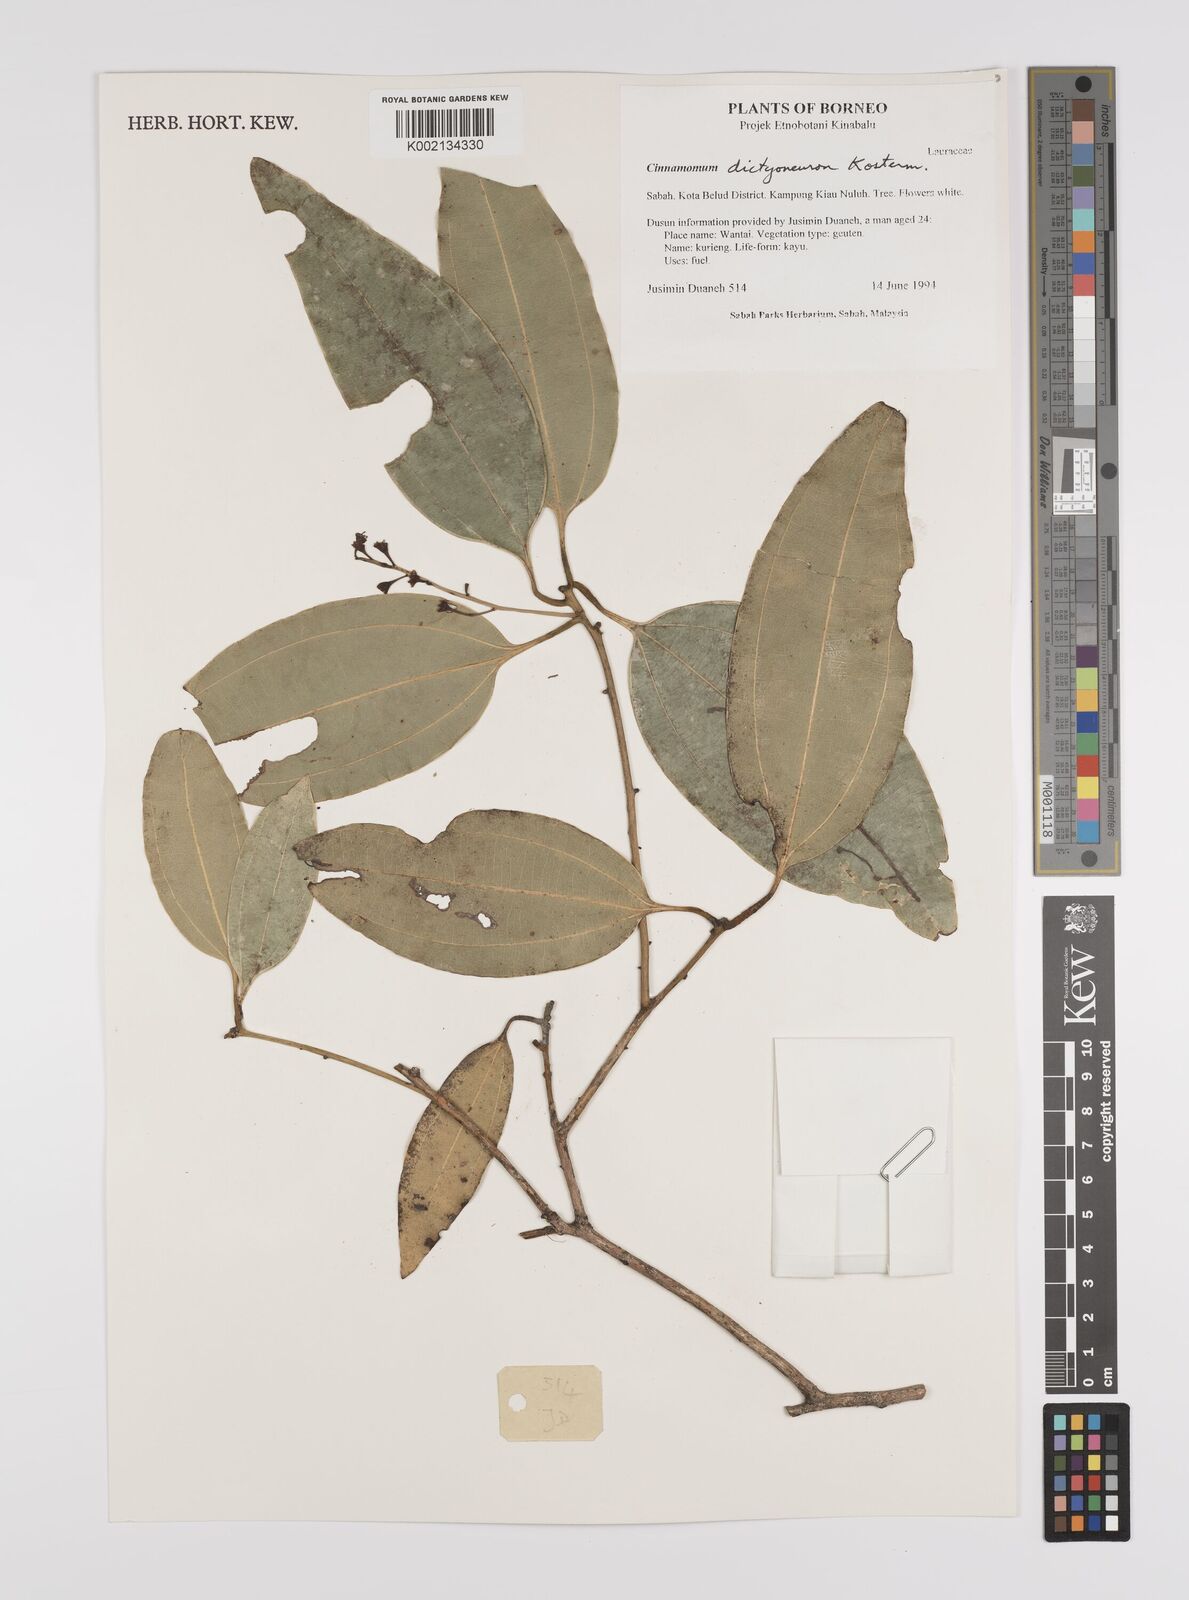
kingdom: Plantae
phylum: Tracheophyta
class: Magnoliopsida
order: Laurales
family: Lauraceae
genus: Cinnamomum
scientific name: Cinnamomum racemosum
